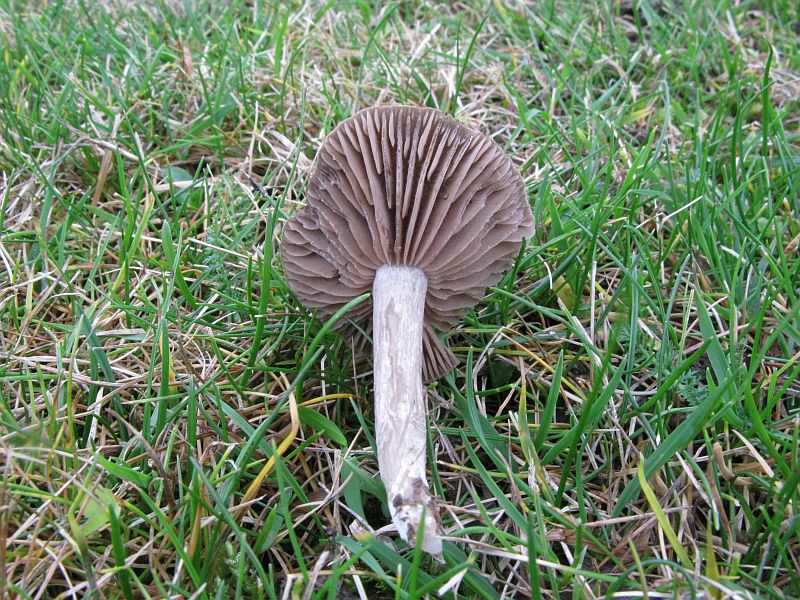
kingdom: Fungi
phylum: Basidiomycota
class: Agaricomycetes
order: Agaricales
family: Entolomataceae
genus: Entoloma
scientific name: Entoloma jubatum
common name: ruskællet rødblad
